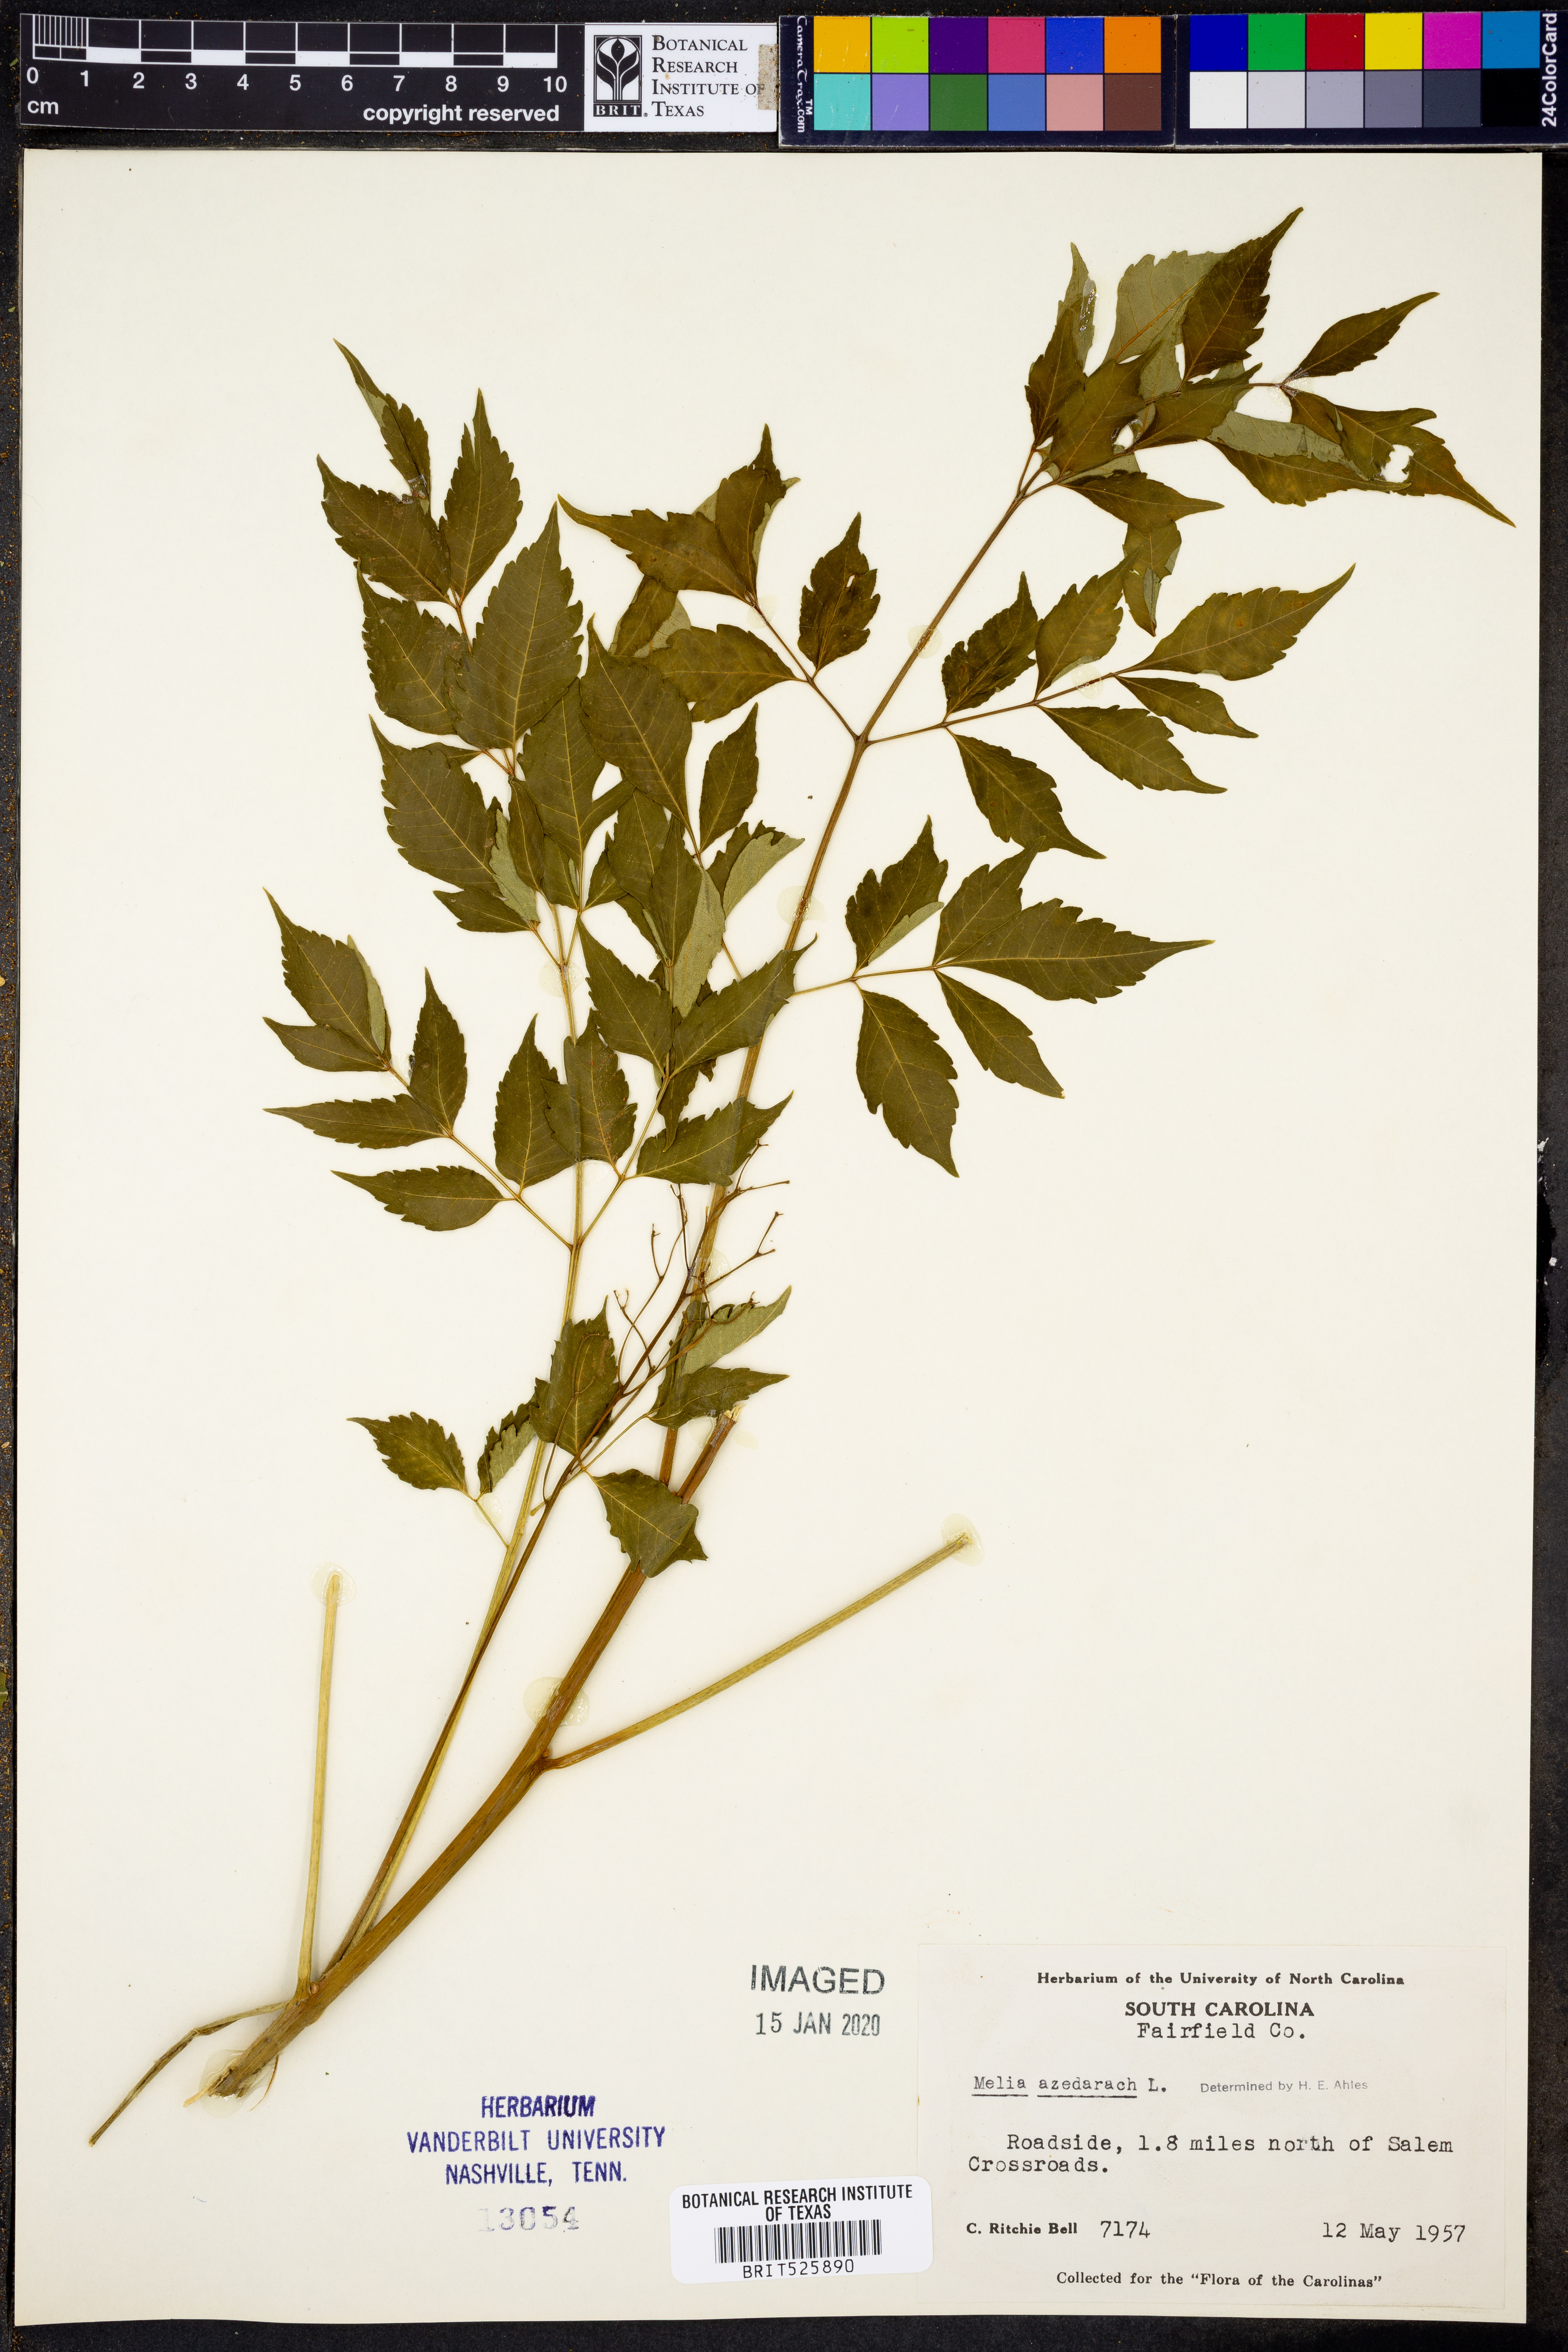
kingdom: Plantae
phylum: Tracheophyta
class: Magnoliopsida
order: Sapindales
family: Meliaceae
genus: Melia
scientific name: Melia azedarach
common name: Chinaberrytree
